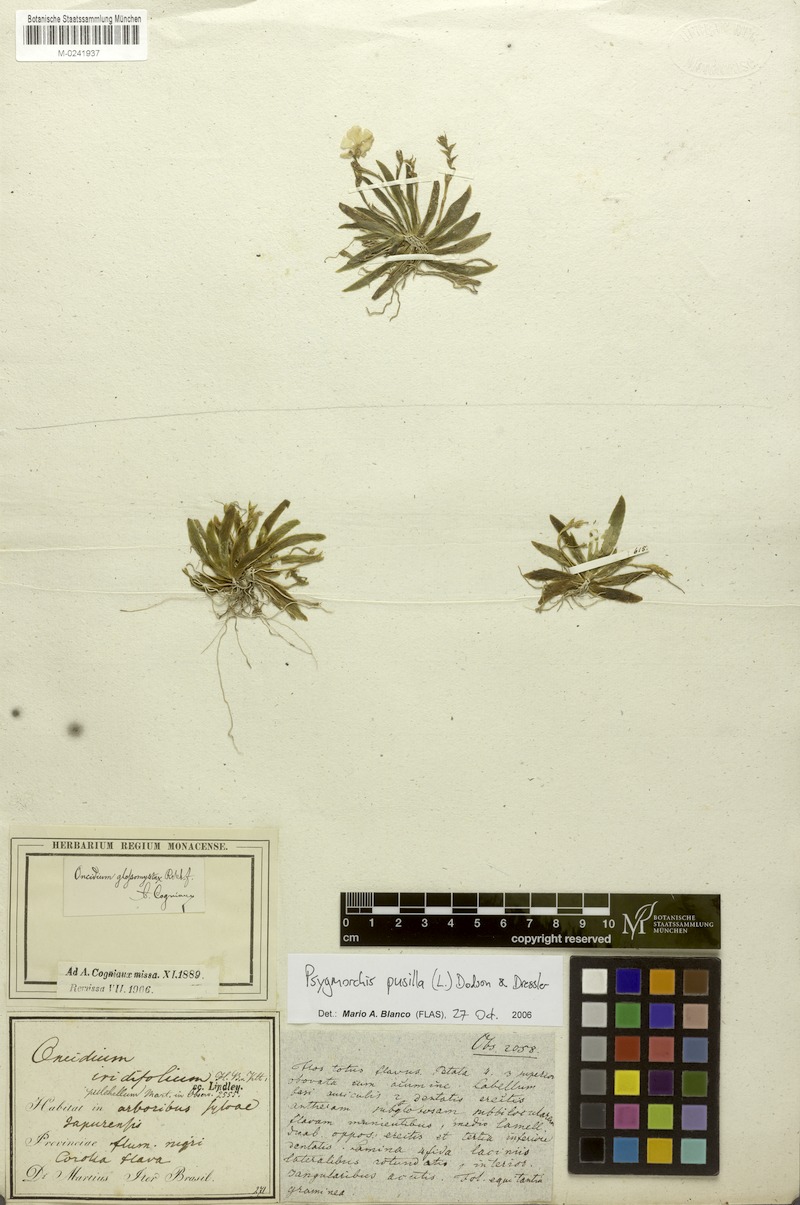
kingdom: Plantae
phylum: Tracheophyta
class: Liliopsida
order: Asparagales
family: Orchidaceae
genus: Erycina
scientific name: Erycina pusilla
